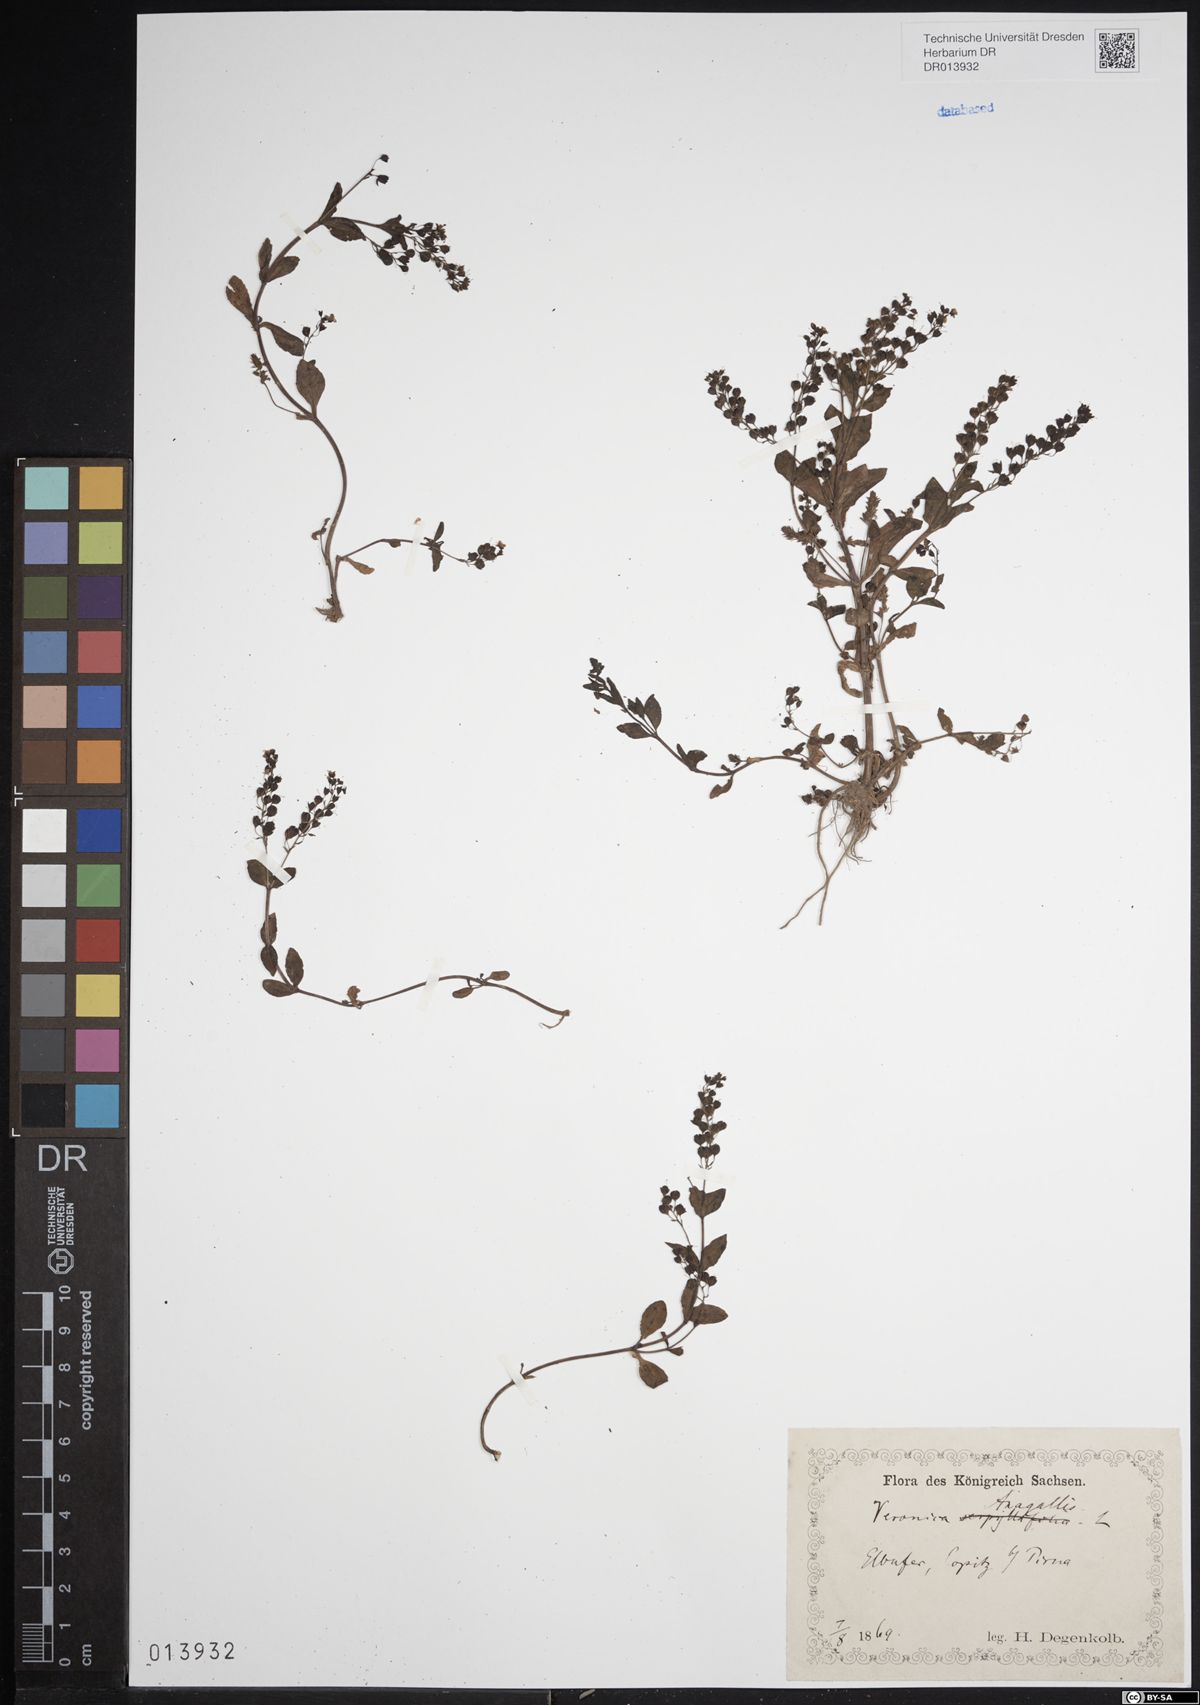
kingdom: Plantae
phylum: Tracheophyta
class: Magnoliopsida
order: Lamiales
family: Plantaginaceae
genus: Veronica
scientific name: Veronica anagallis-aquatica
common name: Water speedwell
